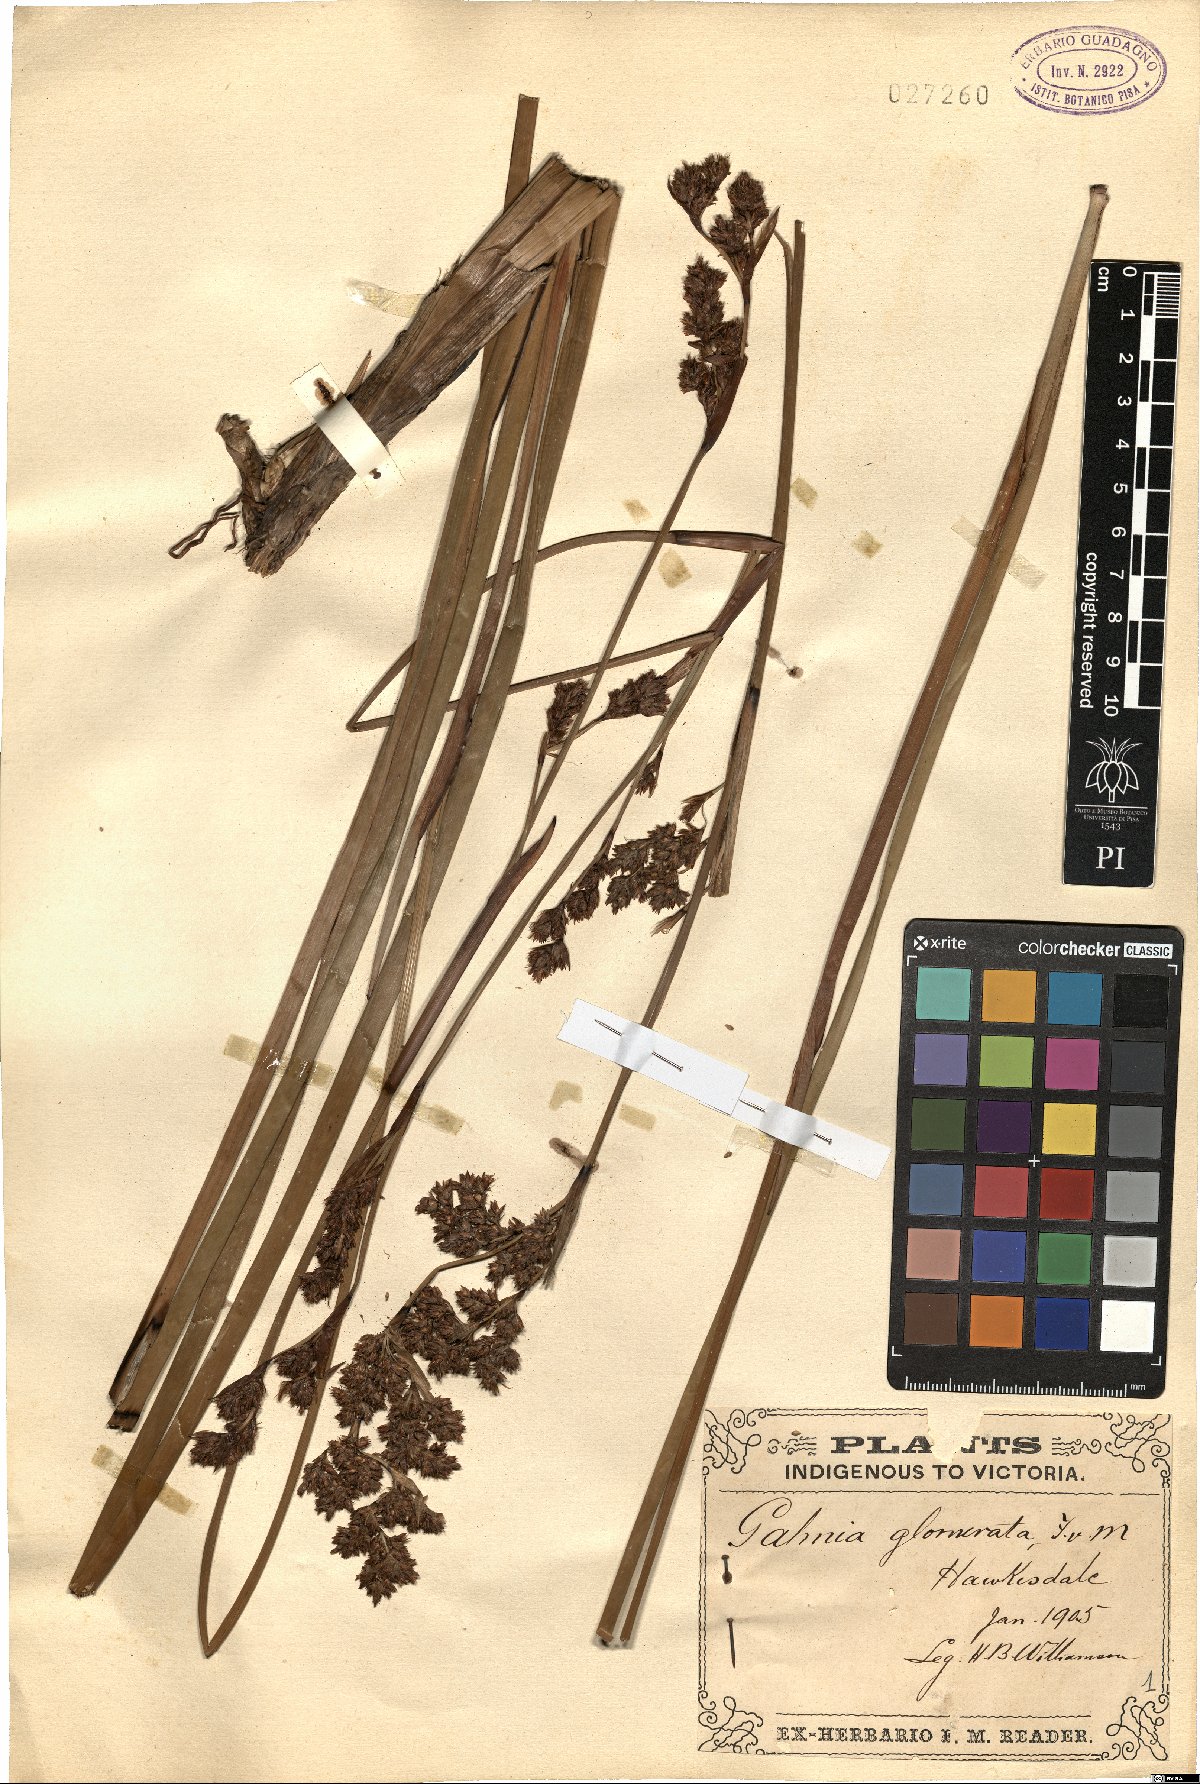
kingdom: Plantae
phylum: Tracheophyta
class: Liliopsida
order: Poales
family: Cyperaceae
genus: Machaerina
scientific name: Machaerina rubiginosa
